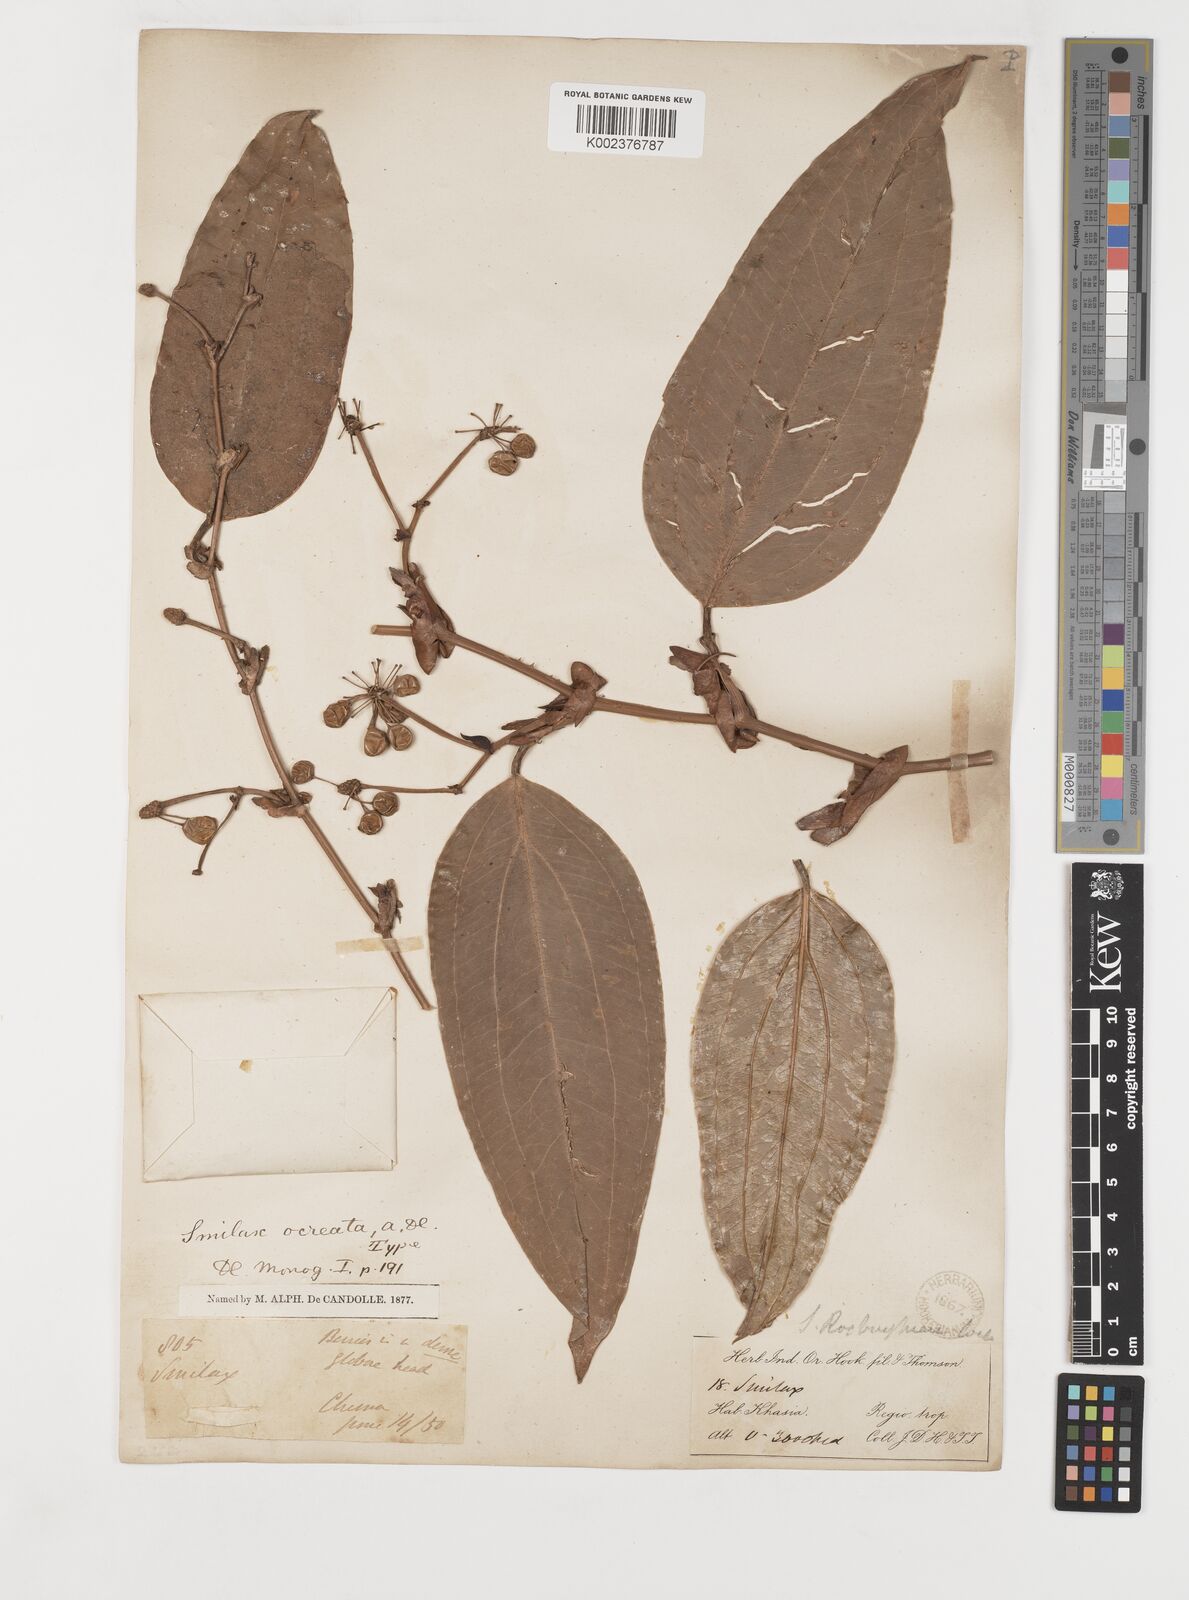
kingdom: Plantae
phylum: Tracheophyta
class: Liliopsida
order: Liliales
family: Smilacaceae
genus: Smilax
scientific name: Smilax ocreata
